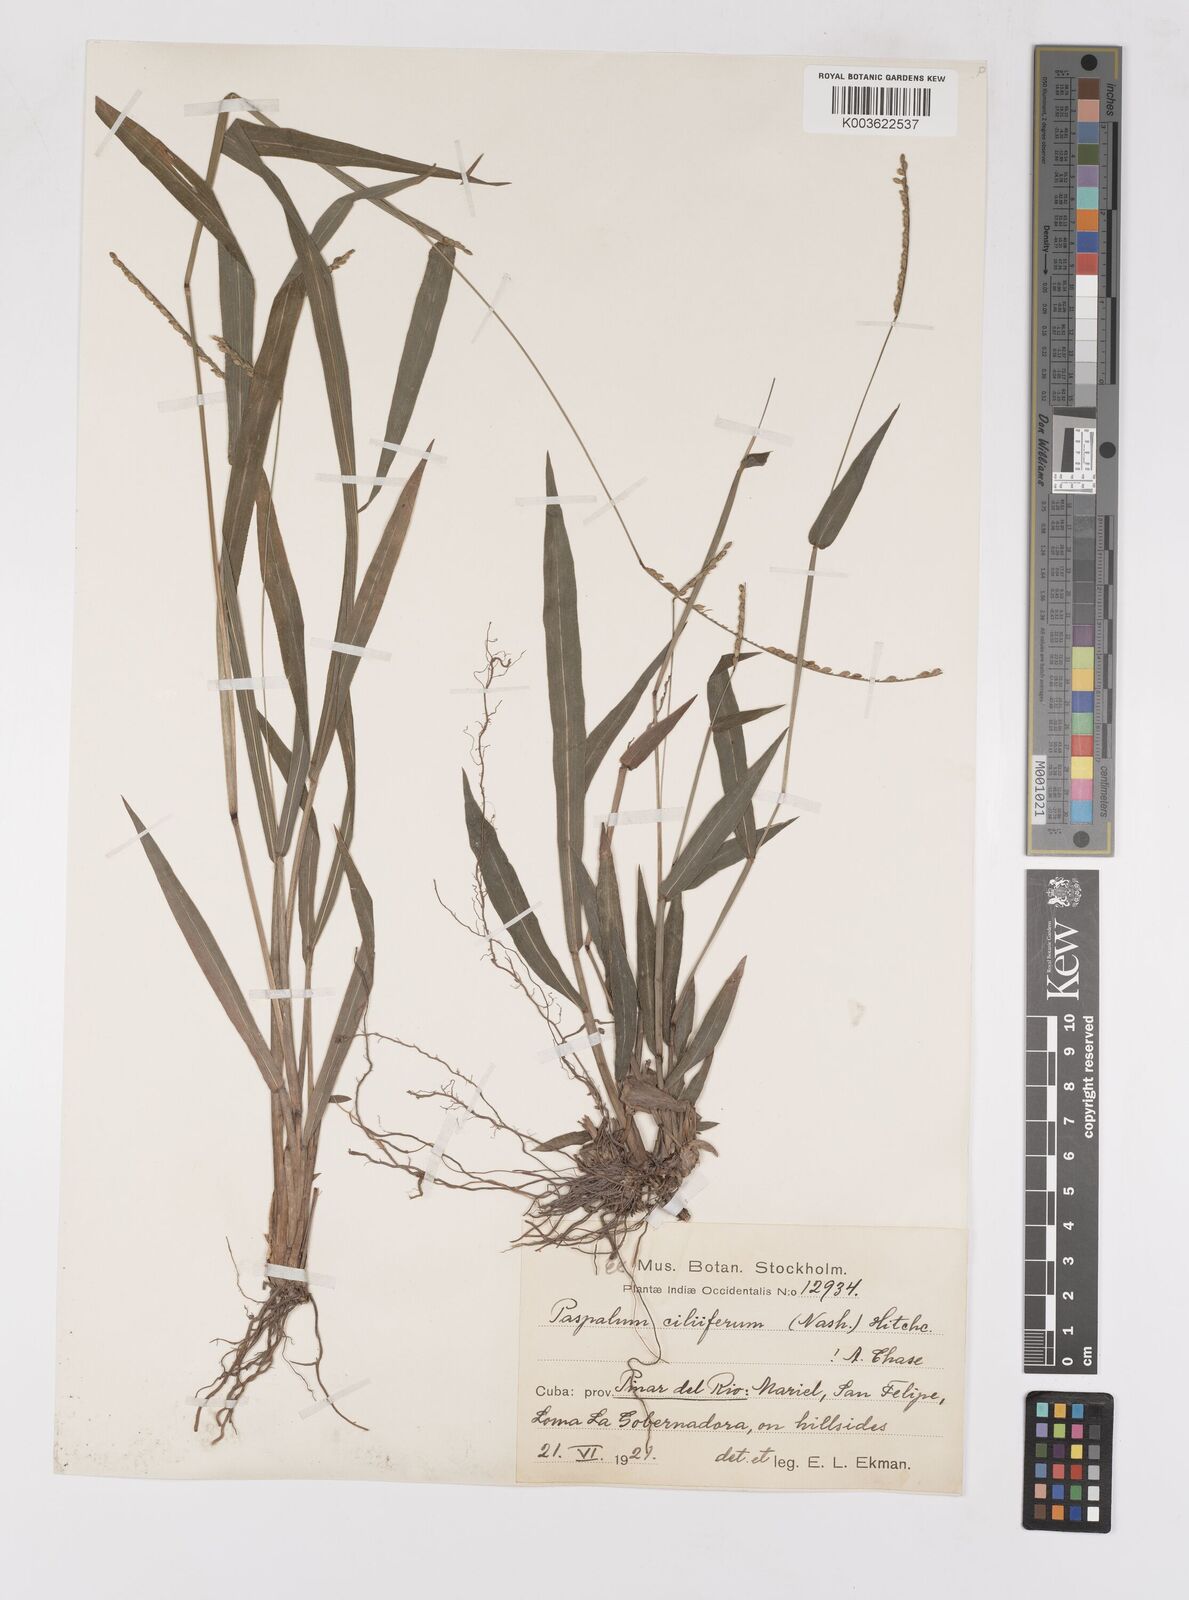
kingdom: Plantae
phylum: Tracheophyta
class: Liliopsida
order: Poales
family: Poaceae
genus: Paspalum
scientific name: Paspalum langei
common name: Rusty-seed paspalum
